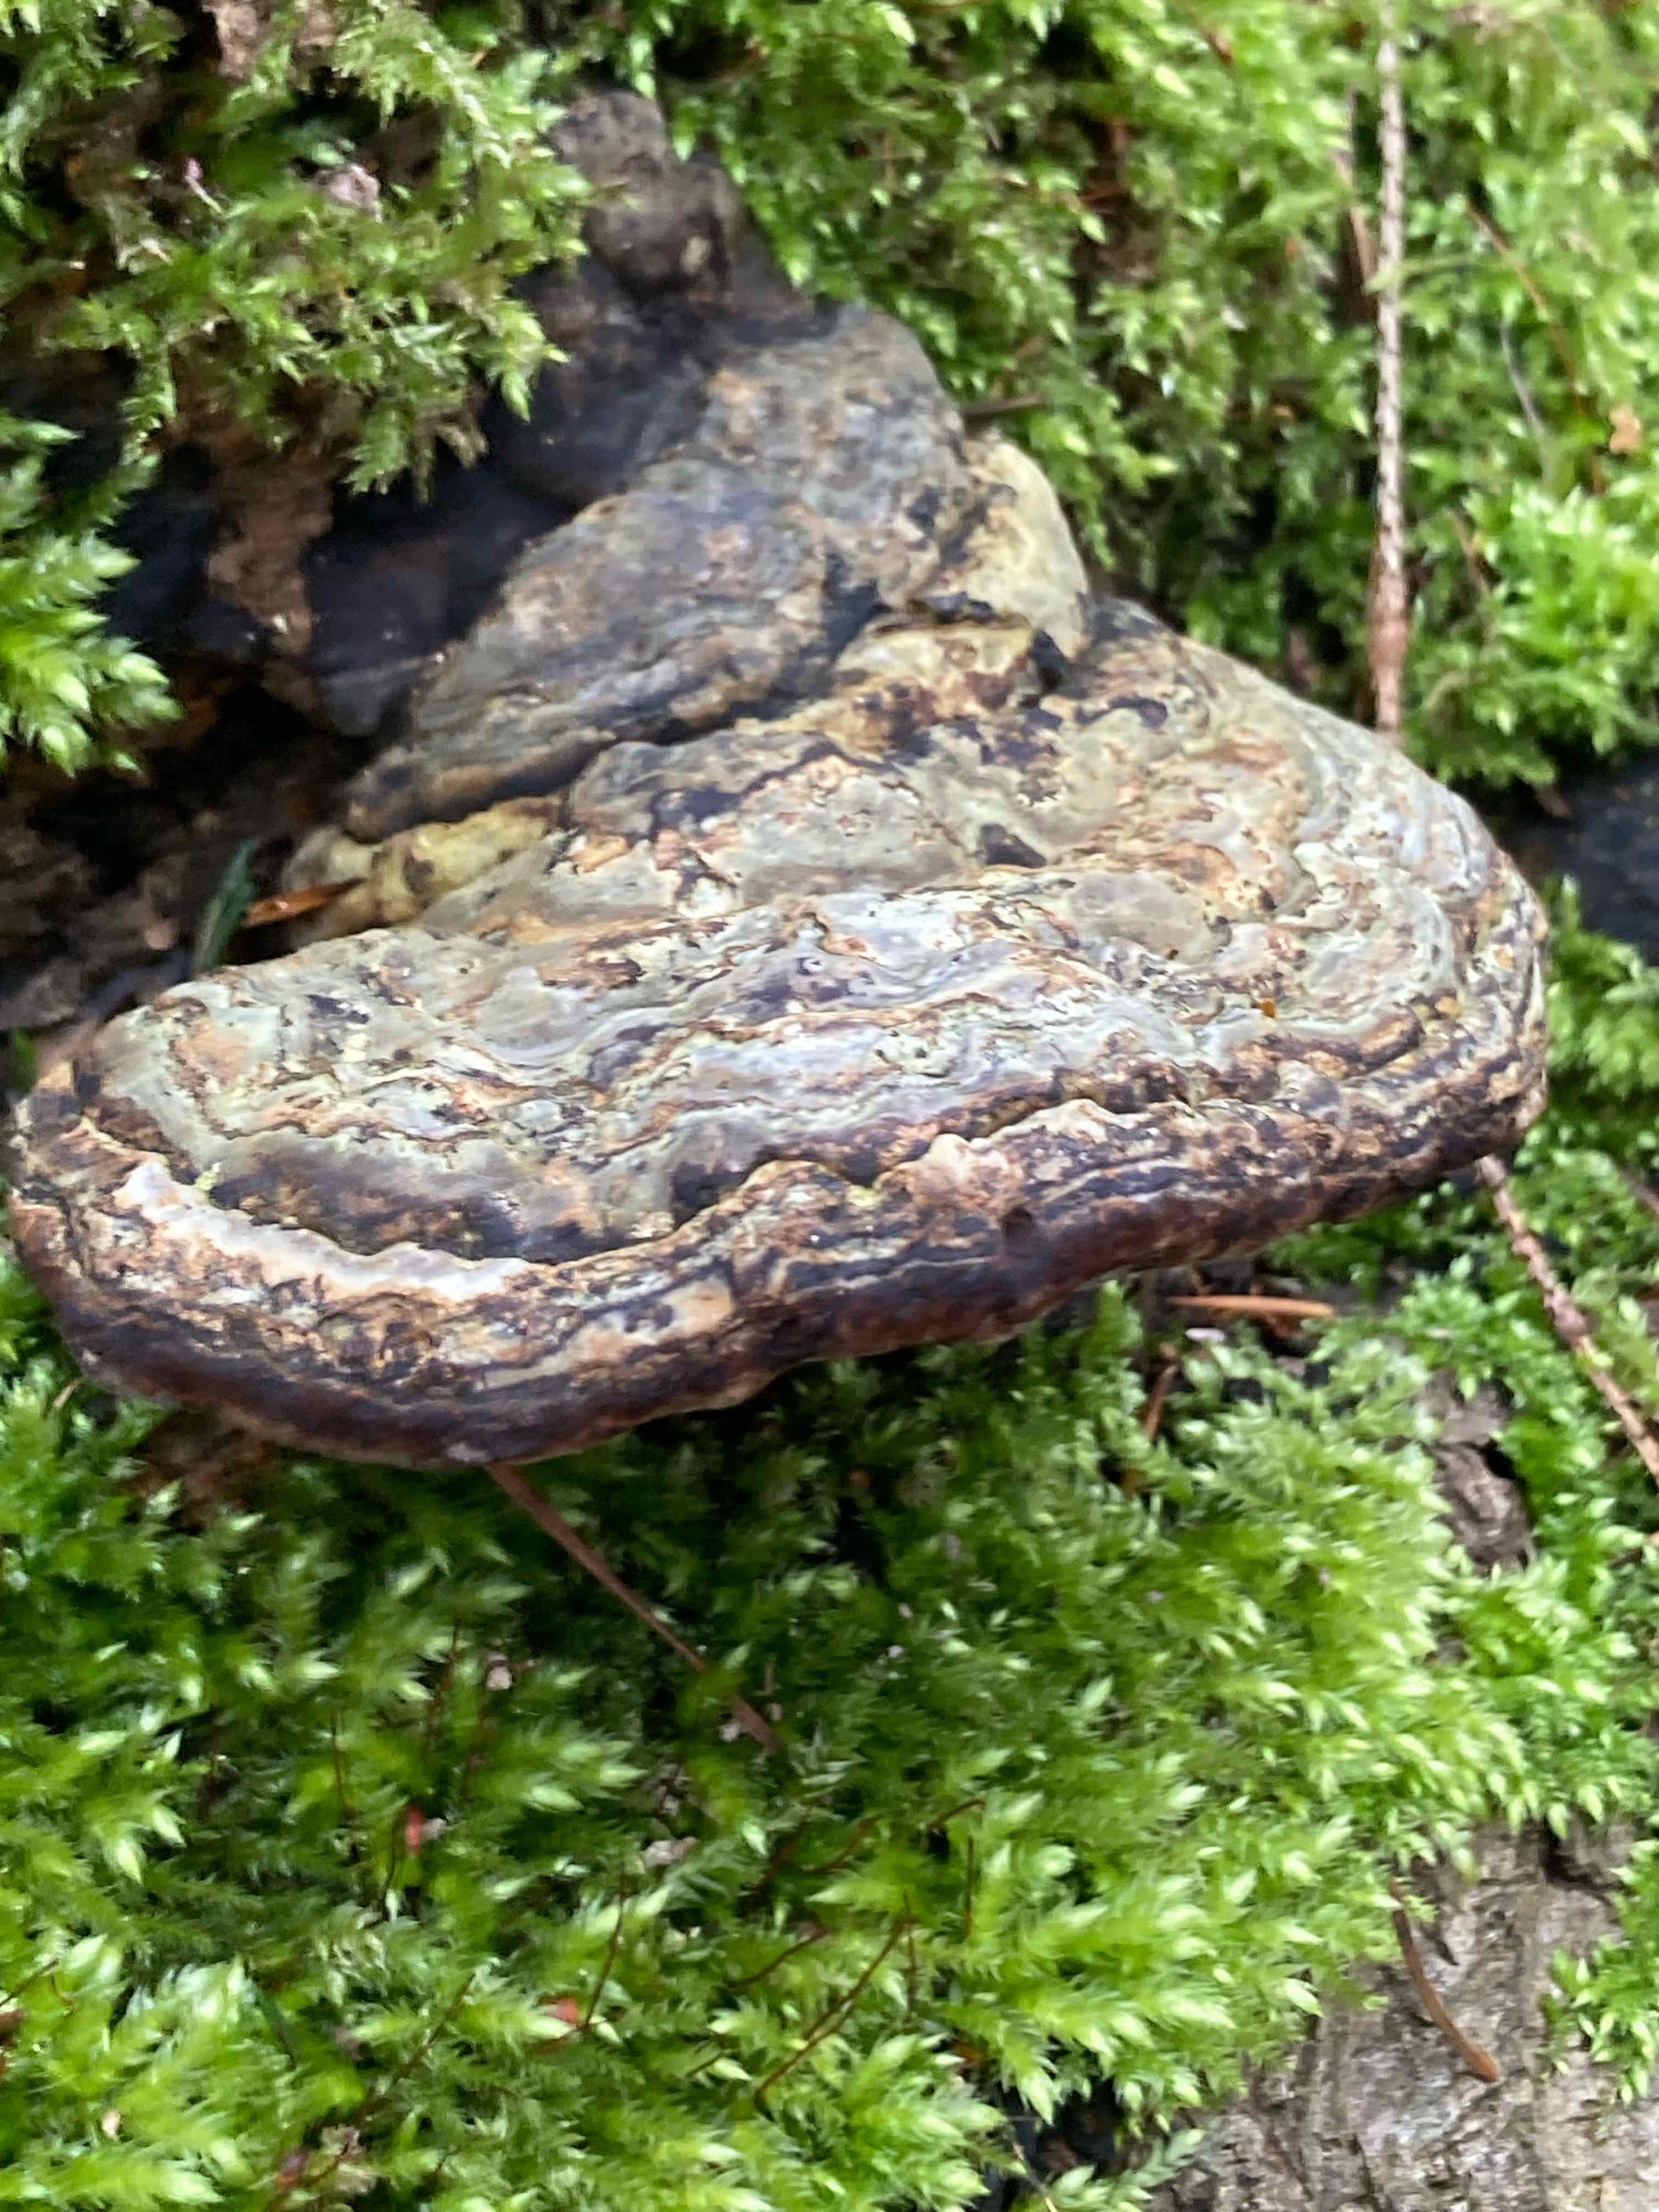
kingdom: Fungi
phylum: Basidiomycota
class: Agaricomycetes
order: Polyporales
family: Polyporaceae
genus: Fomes
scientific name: Fomes fomentarius
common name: tøndersvamp
